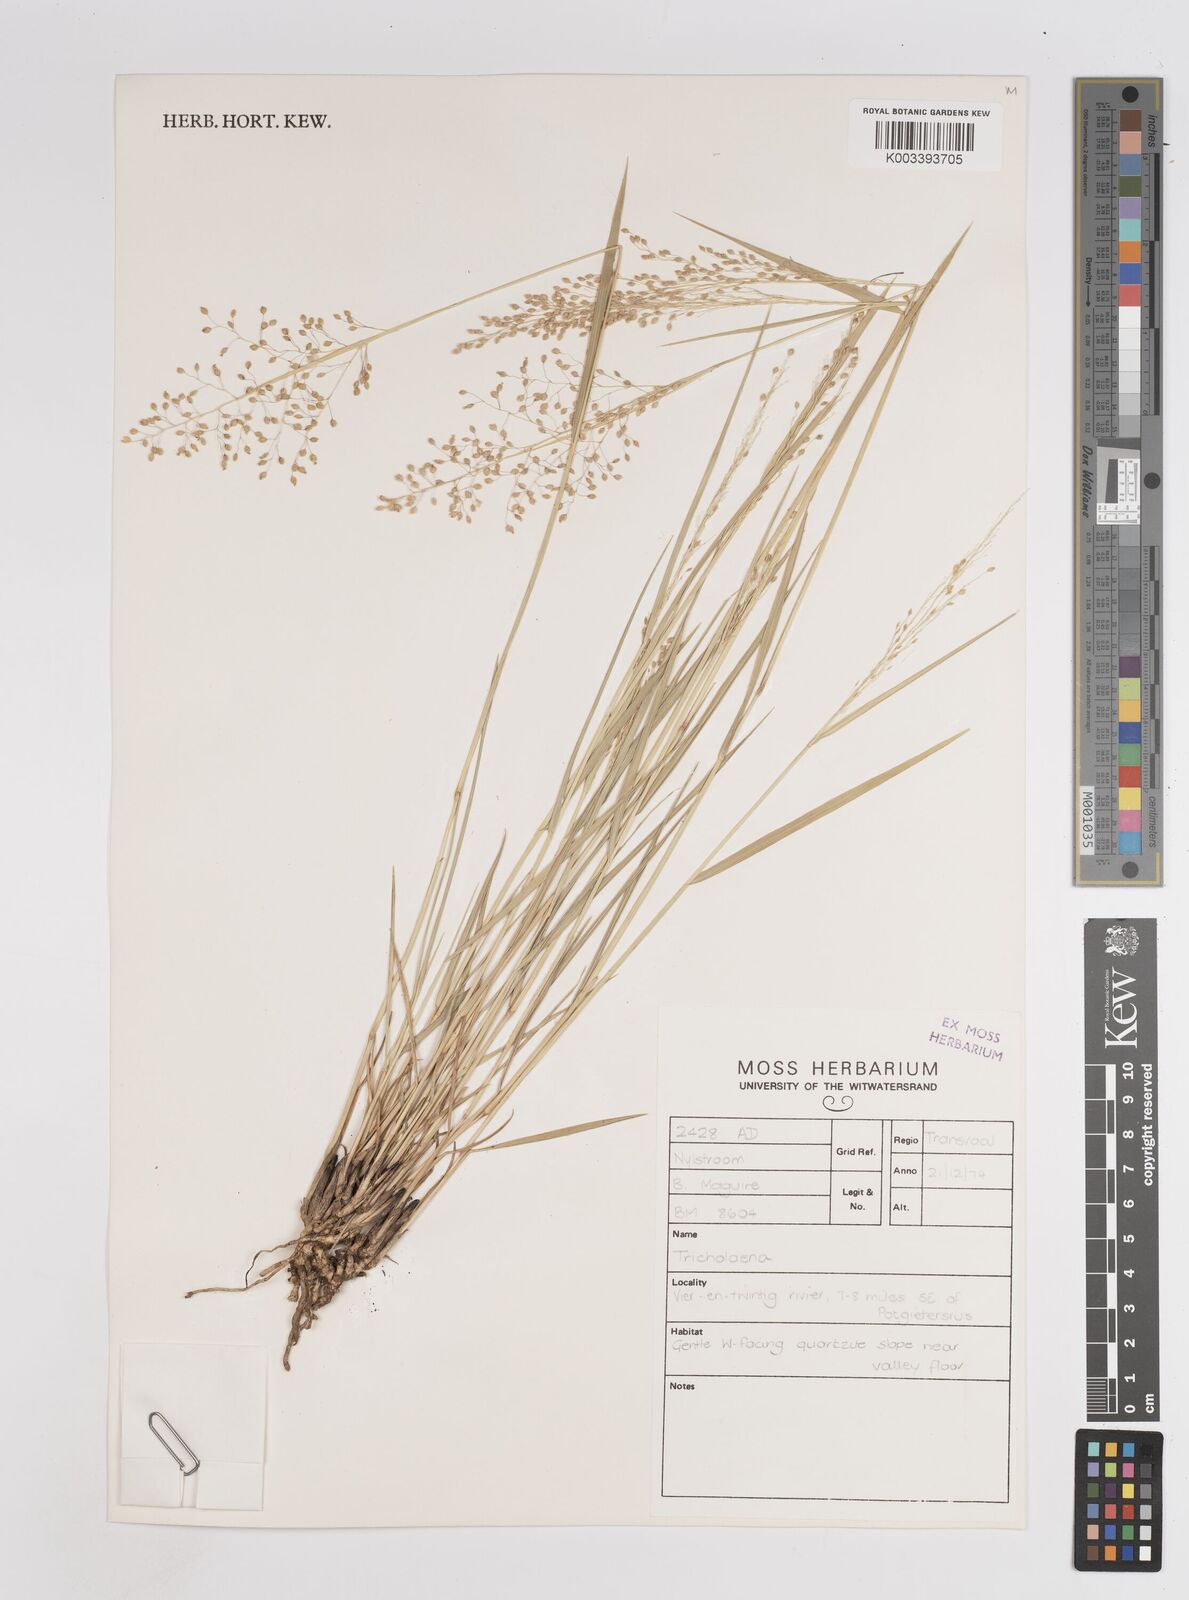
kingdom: Plantae
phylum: Tracheophyta
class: Liliopsida
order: Poales
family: Poaceae
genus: Trichanthecium
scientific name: Trichanthecium nervatum
